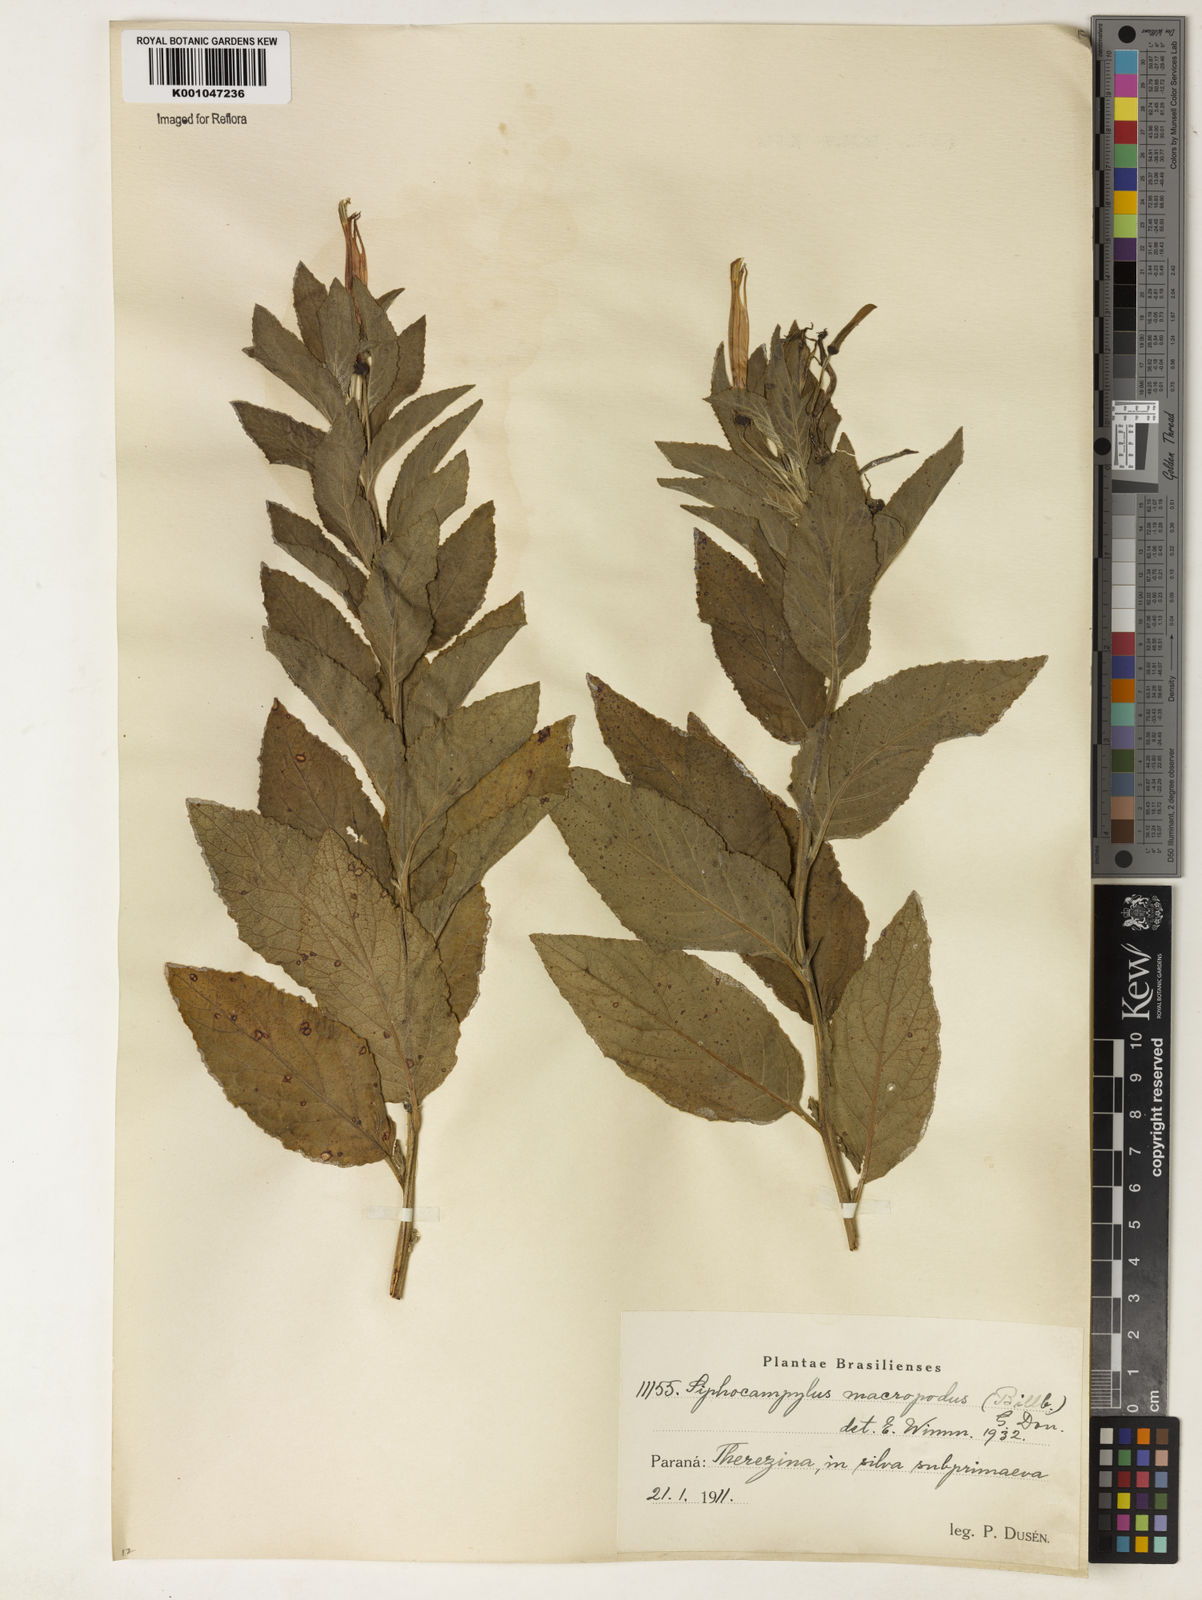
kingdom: Plantae
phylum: Tracheophyta
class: Magnoliopsida
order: Asterales
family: Campanulaceae
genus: Siphocampylus
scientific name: Siphocampylus macropodus
